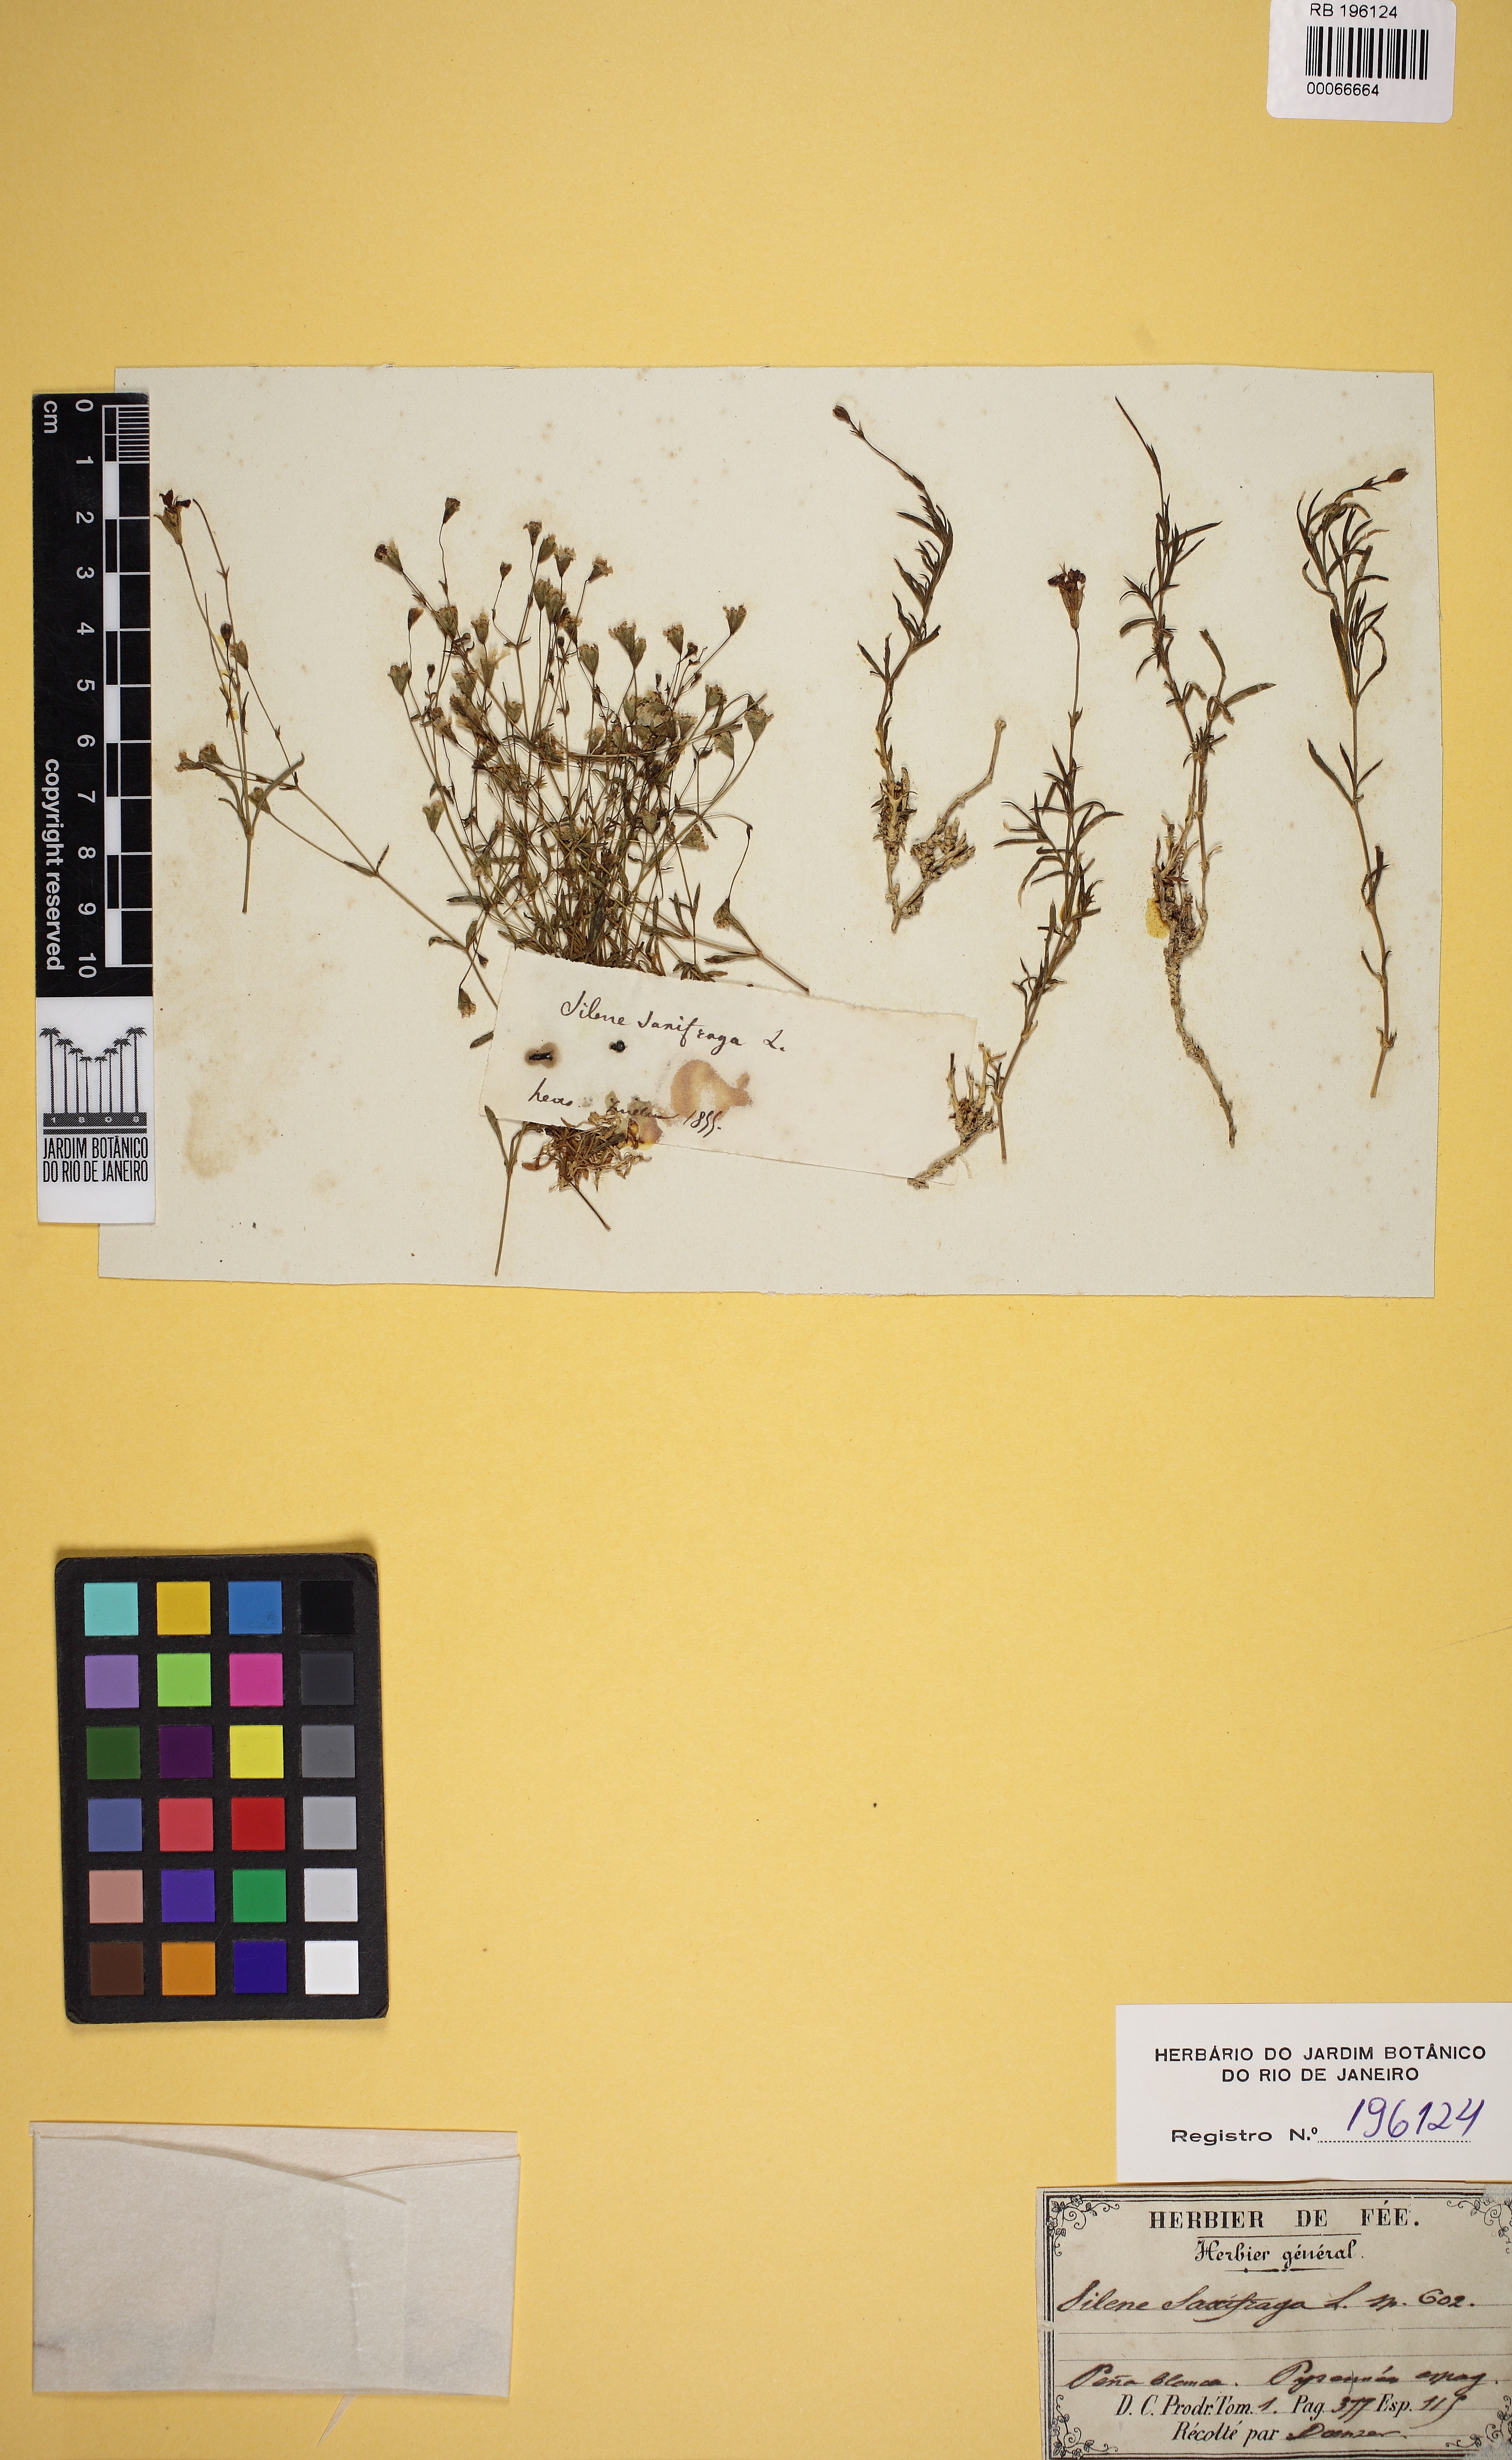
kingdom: Plantae
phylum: Tracheophyta
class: Magnoliopsida
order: Caryophyllales
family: Caryophyllaceae
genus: Silene
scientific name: Silene saxifraga
